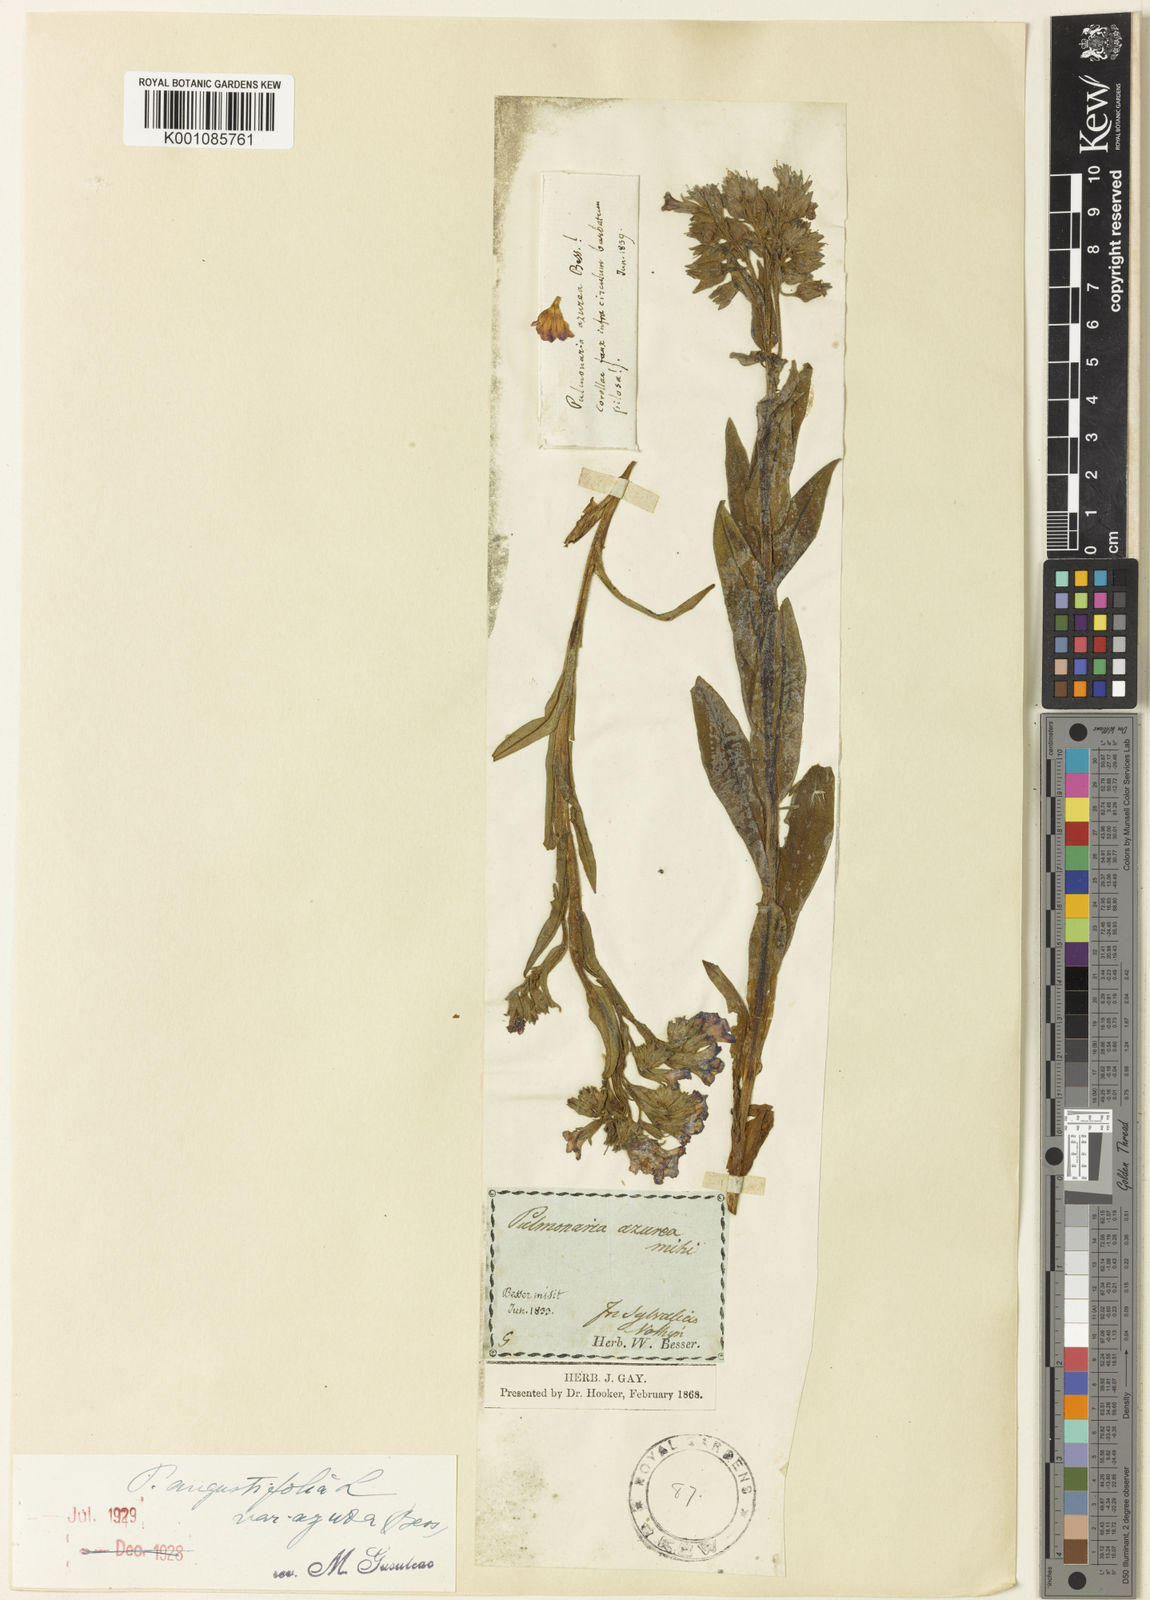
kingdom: Plantae
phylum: Tracheophyta
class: Magnoliopsida
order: Boraginales
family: Boraginaceae
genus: Pulmonaria
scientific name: Pulmonaria angustifolia
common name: Blue cowslip
